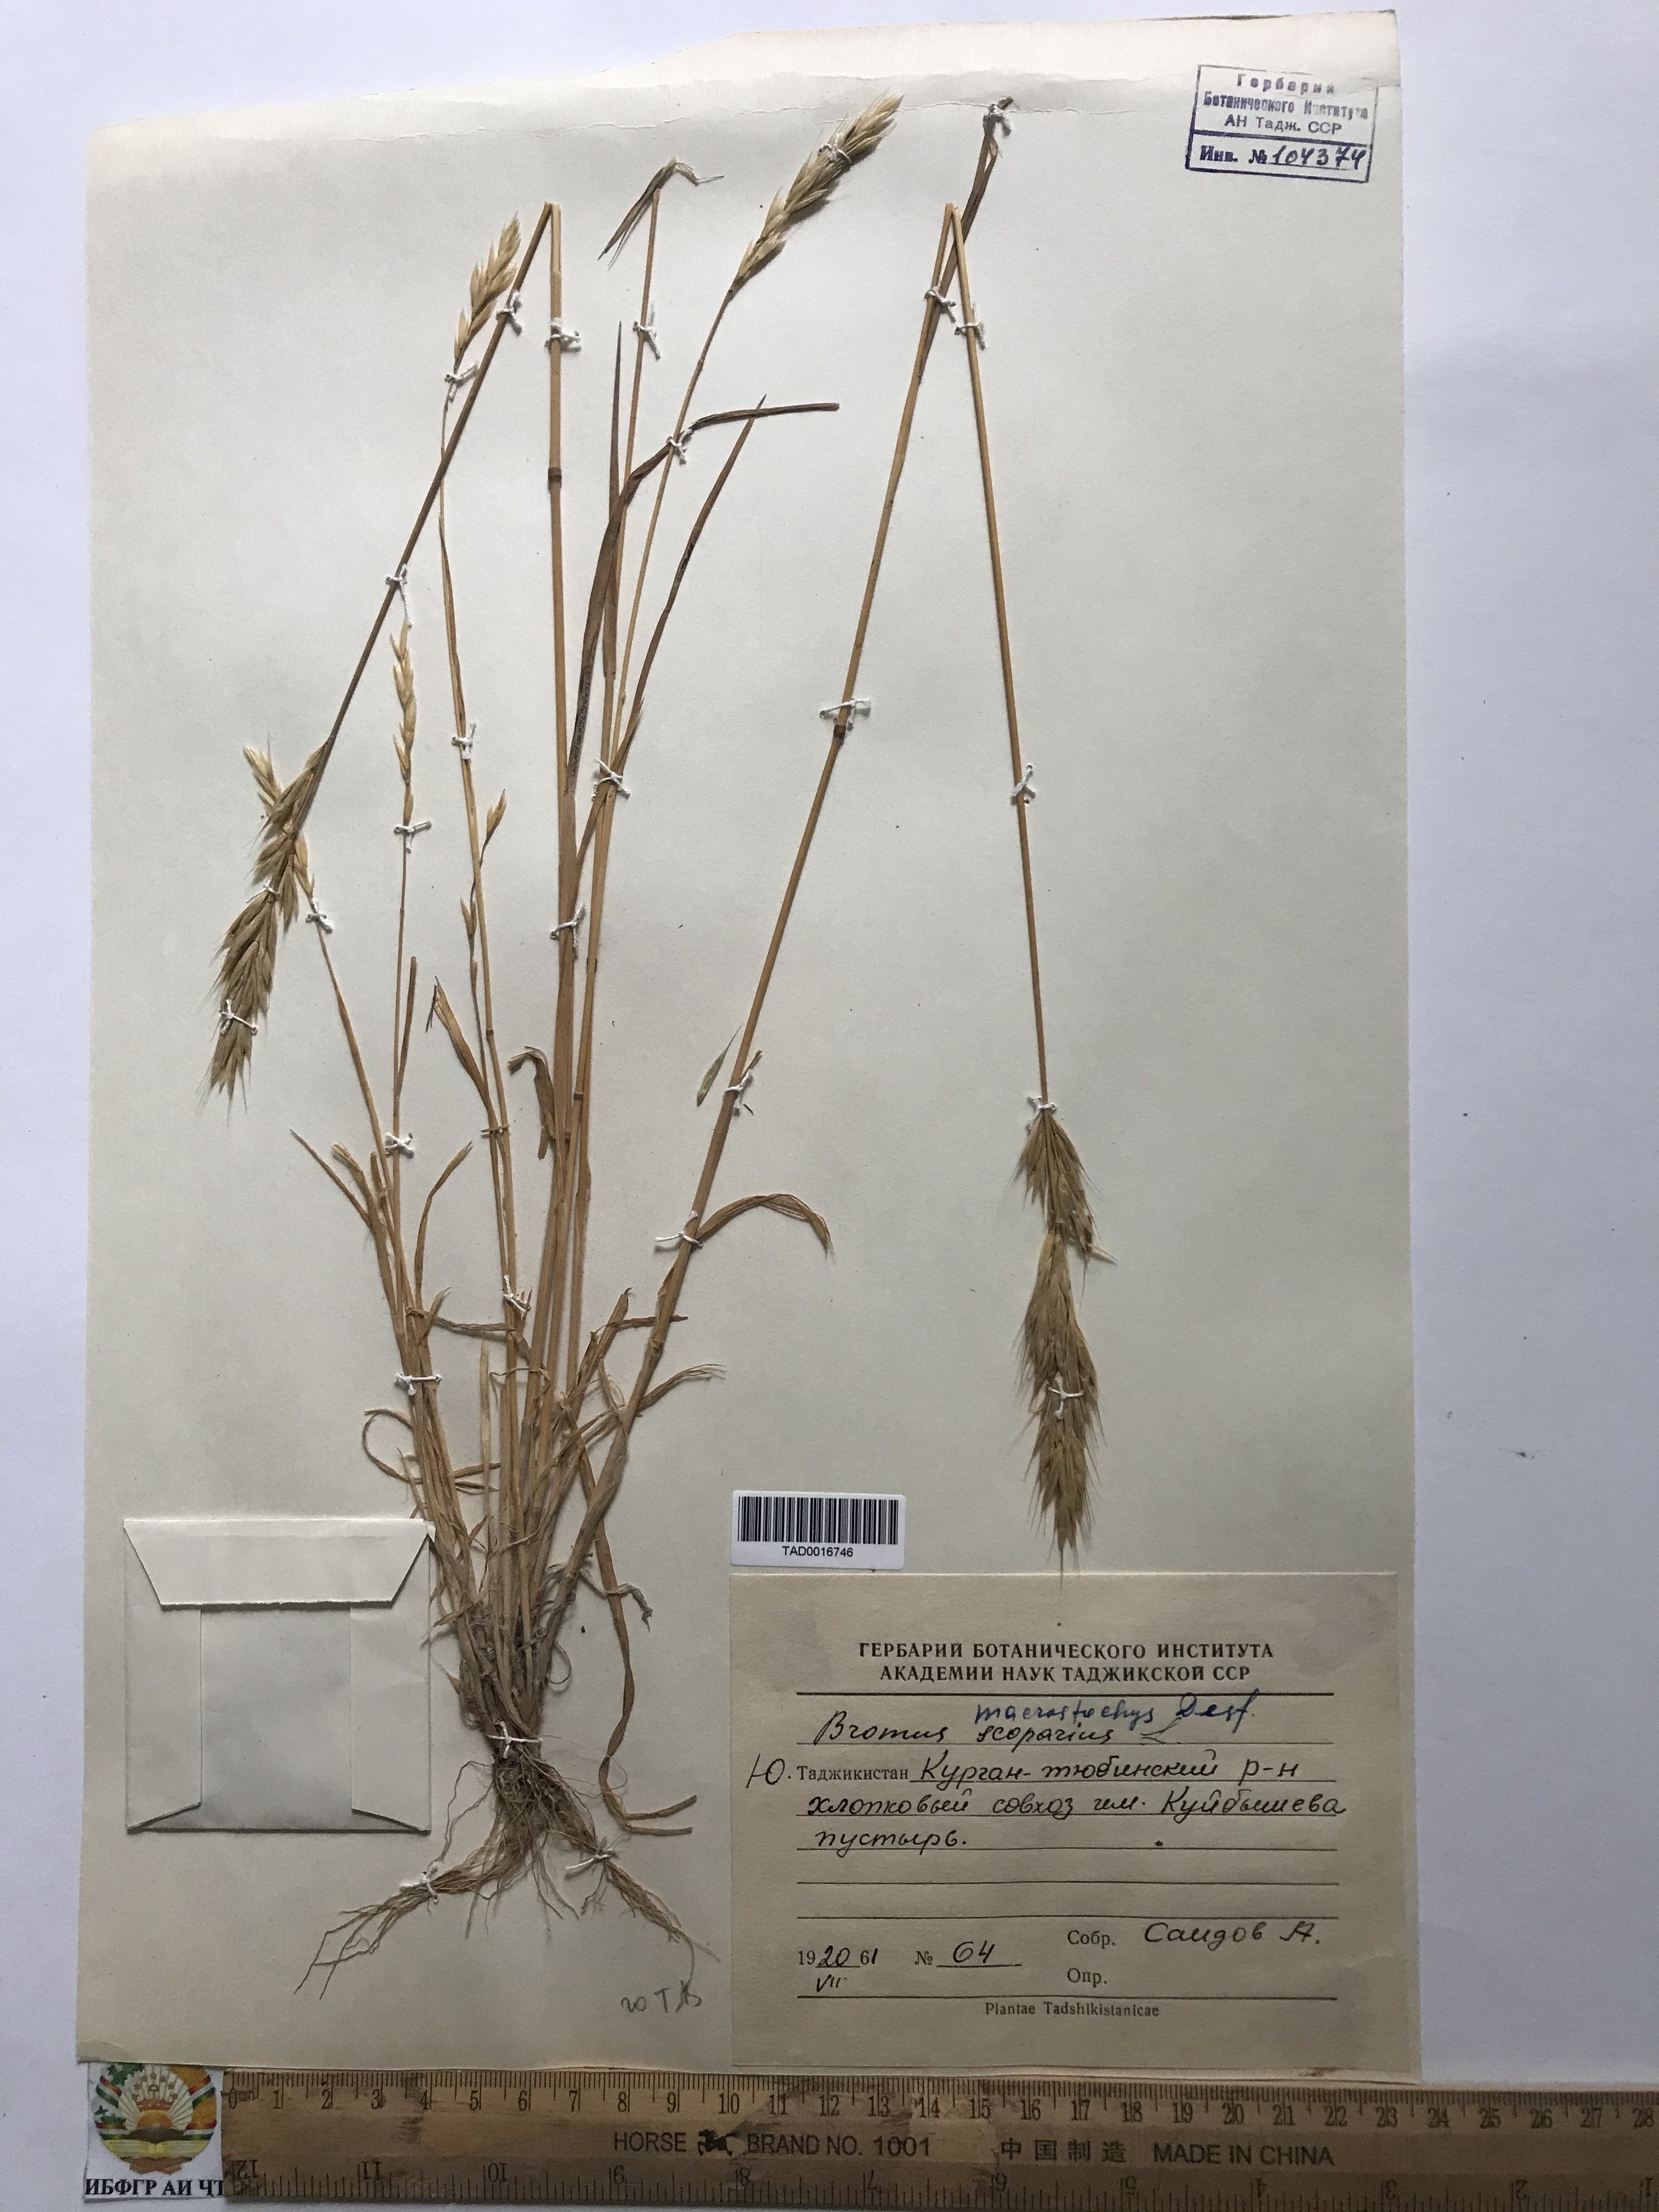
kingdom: Plantae
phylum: Tracheophyta
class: Liliopsida
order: Poales
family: Poaceae
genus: Bromus
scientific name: Bromus lanceolatus
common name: Mediterranean brome
